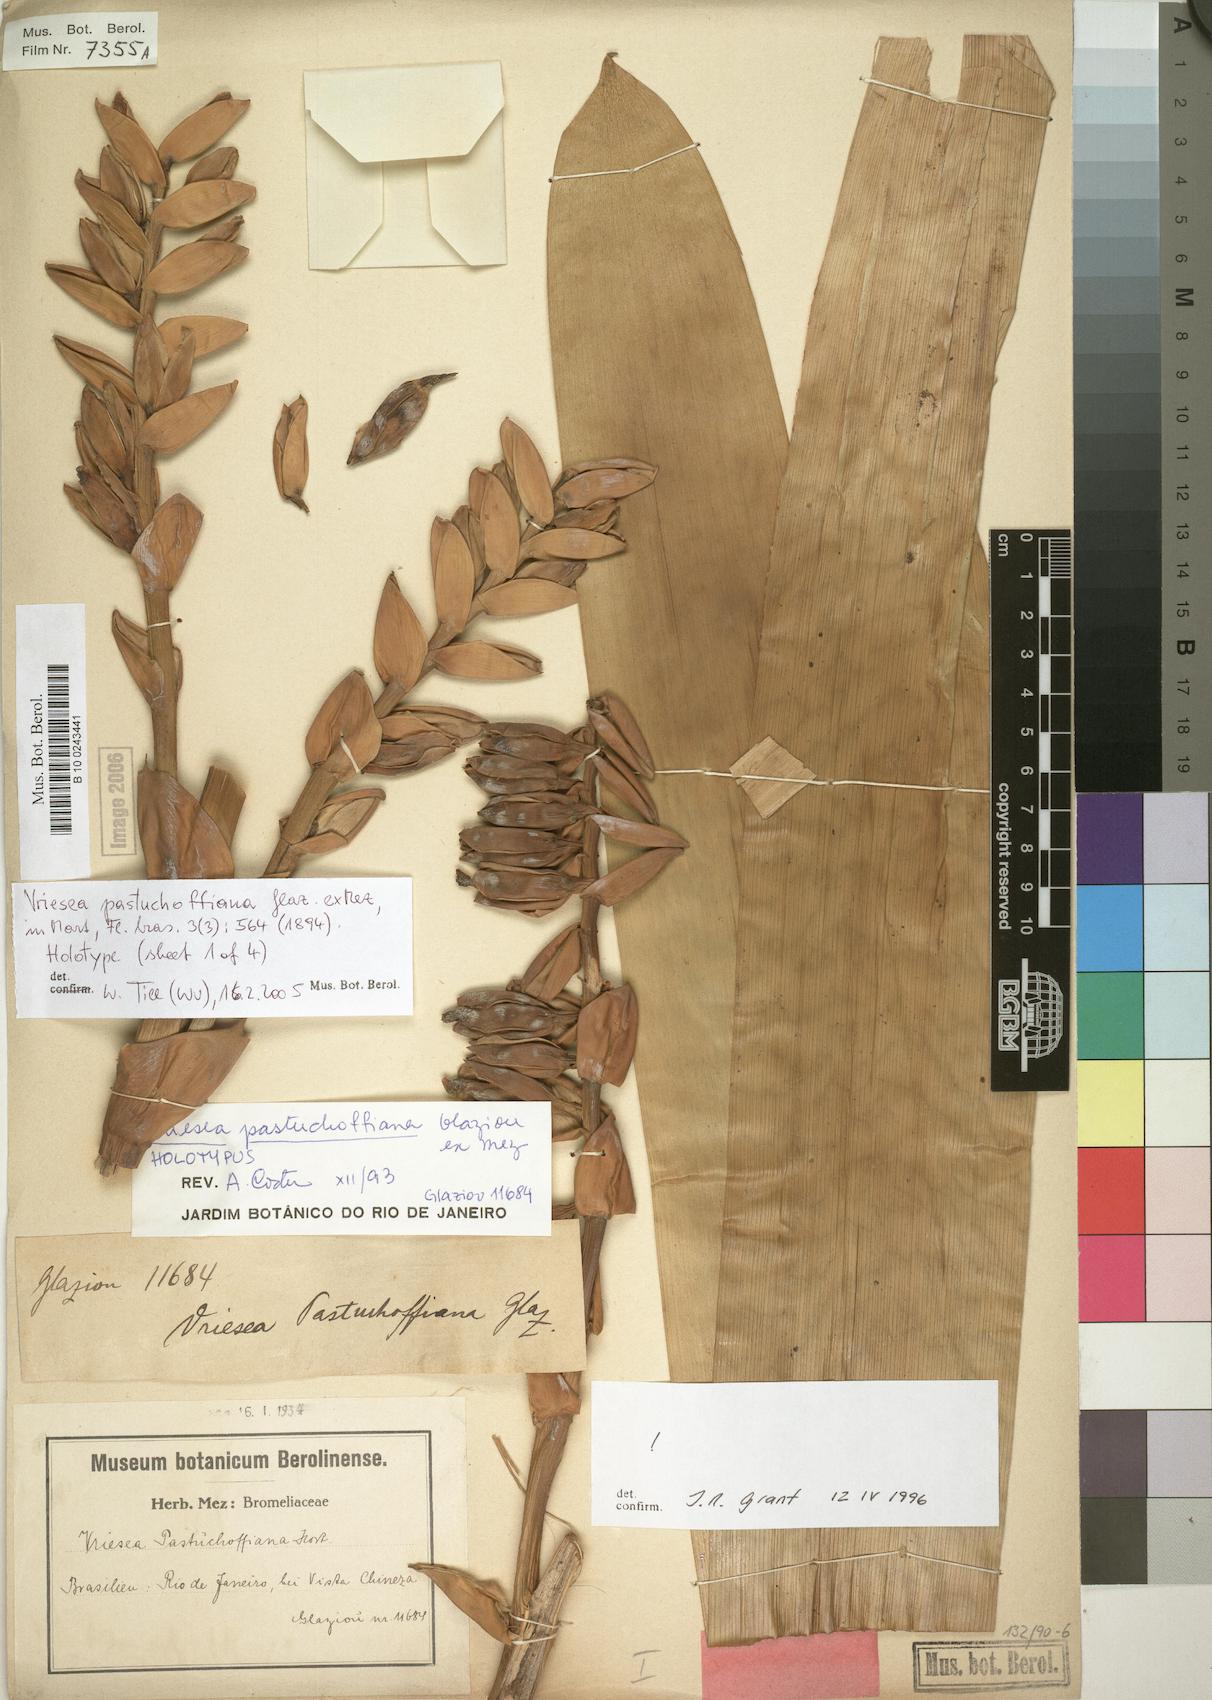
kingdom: Plantae
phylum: Tracheophyta
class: Liliopsida
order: Poales
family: Bromeliaceae
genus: Vriesea
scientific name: Vriesea pastuchoffiana
